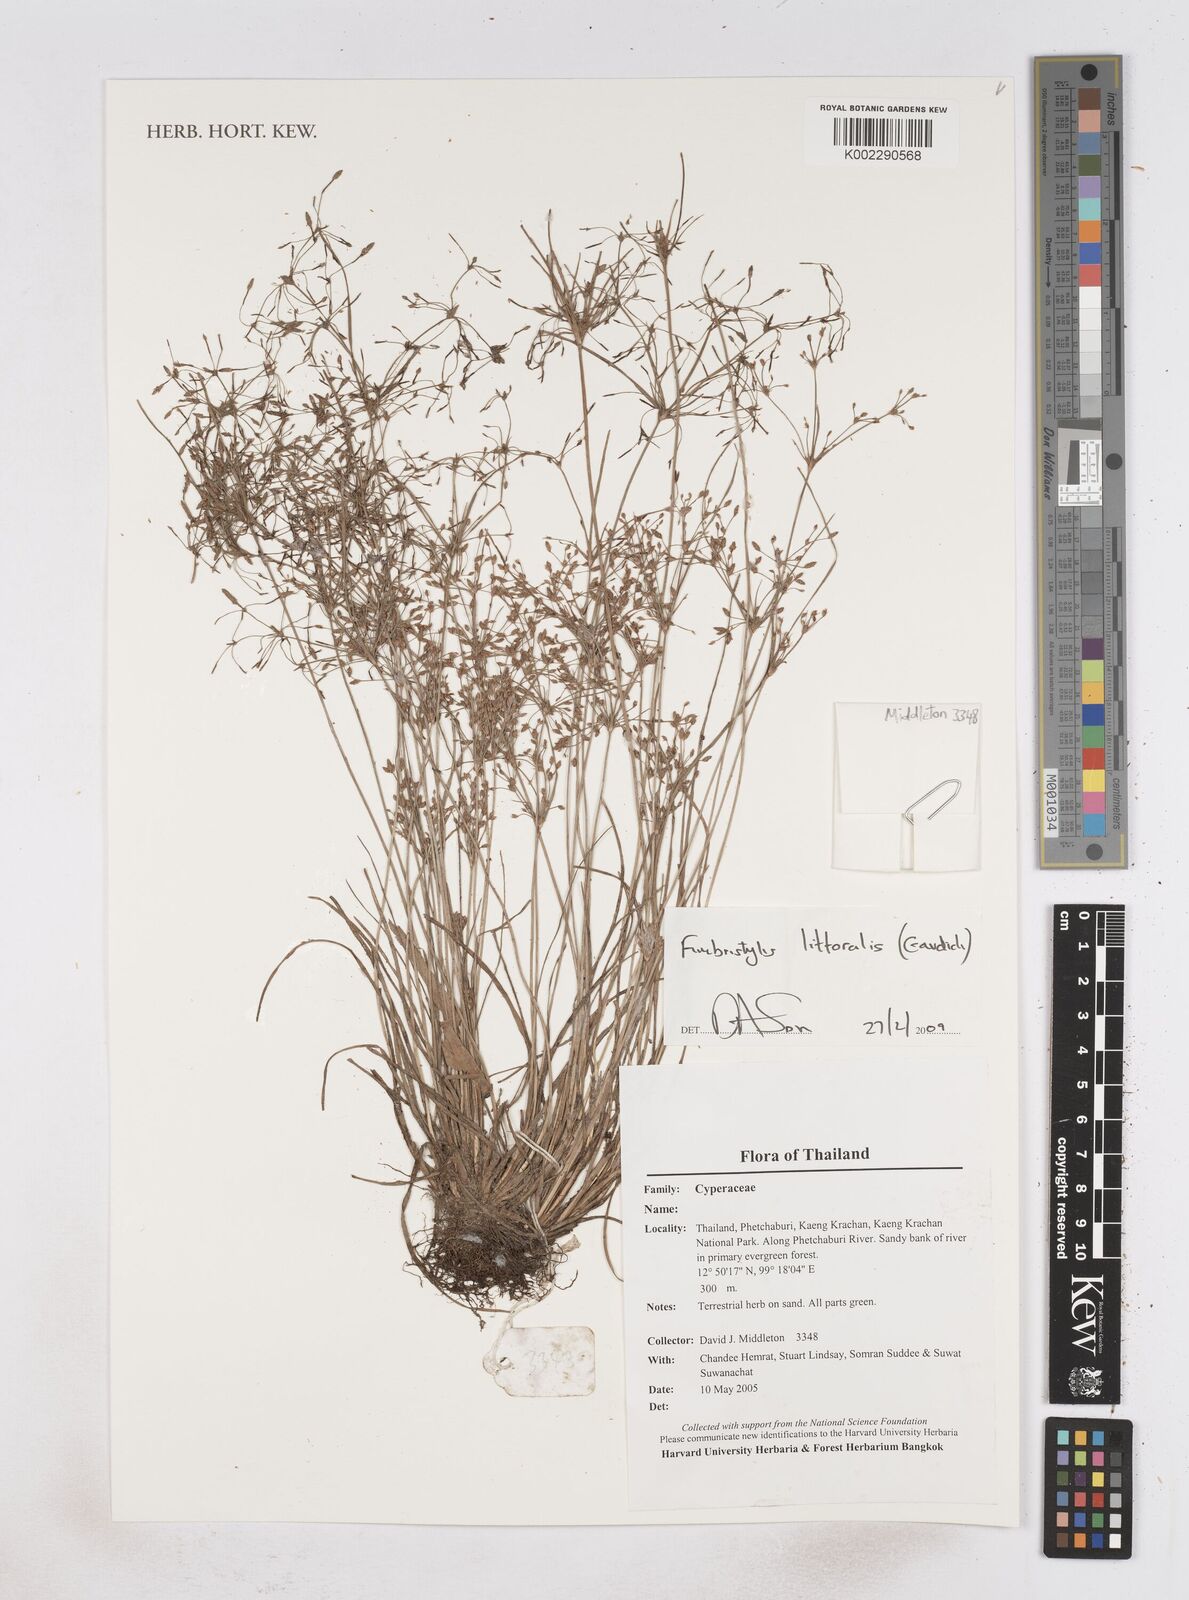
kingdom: Plantae
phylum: Tracheophyta
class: Liliopsida
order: Poales
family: Cyperaceae
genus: Fimbristylis
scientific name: Fimbristylis quinquangularis
